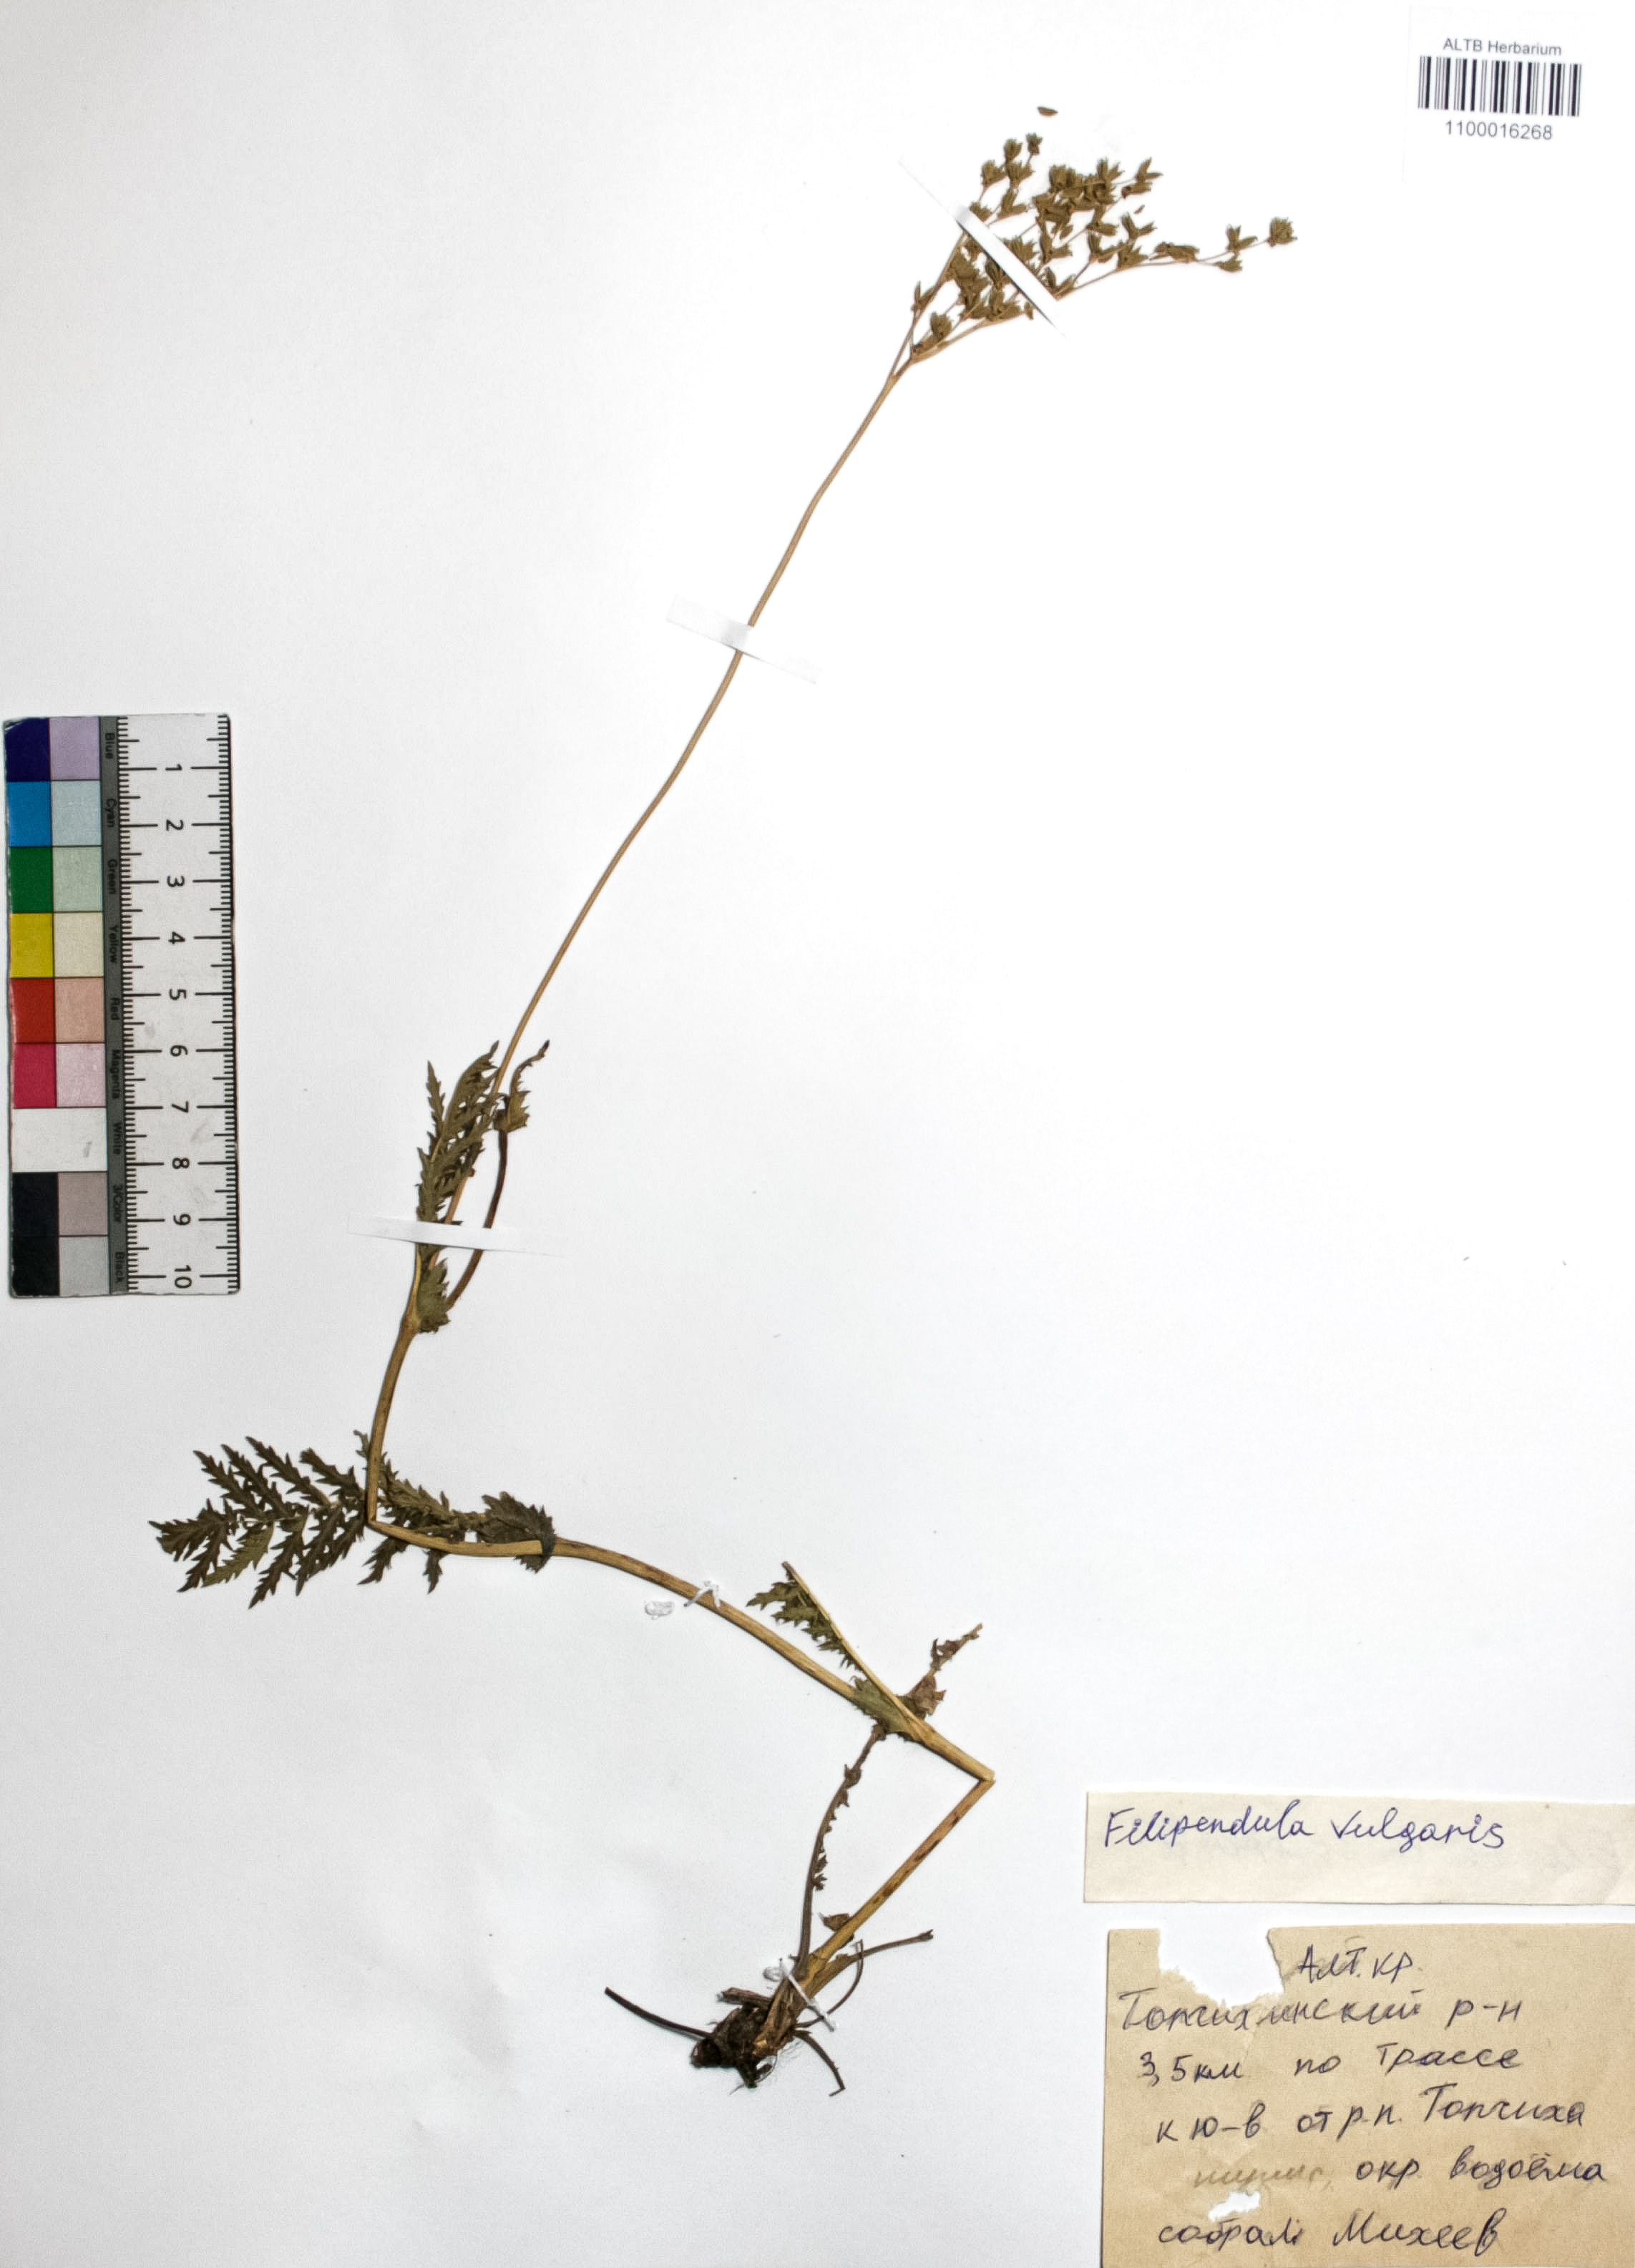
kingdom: Plantae
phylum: Tracheophyta
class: Magnoliopsida
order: Rosales
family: Rosaceae
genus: Filipendula
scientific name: Filipendula vulgaris
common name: Dropwort
